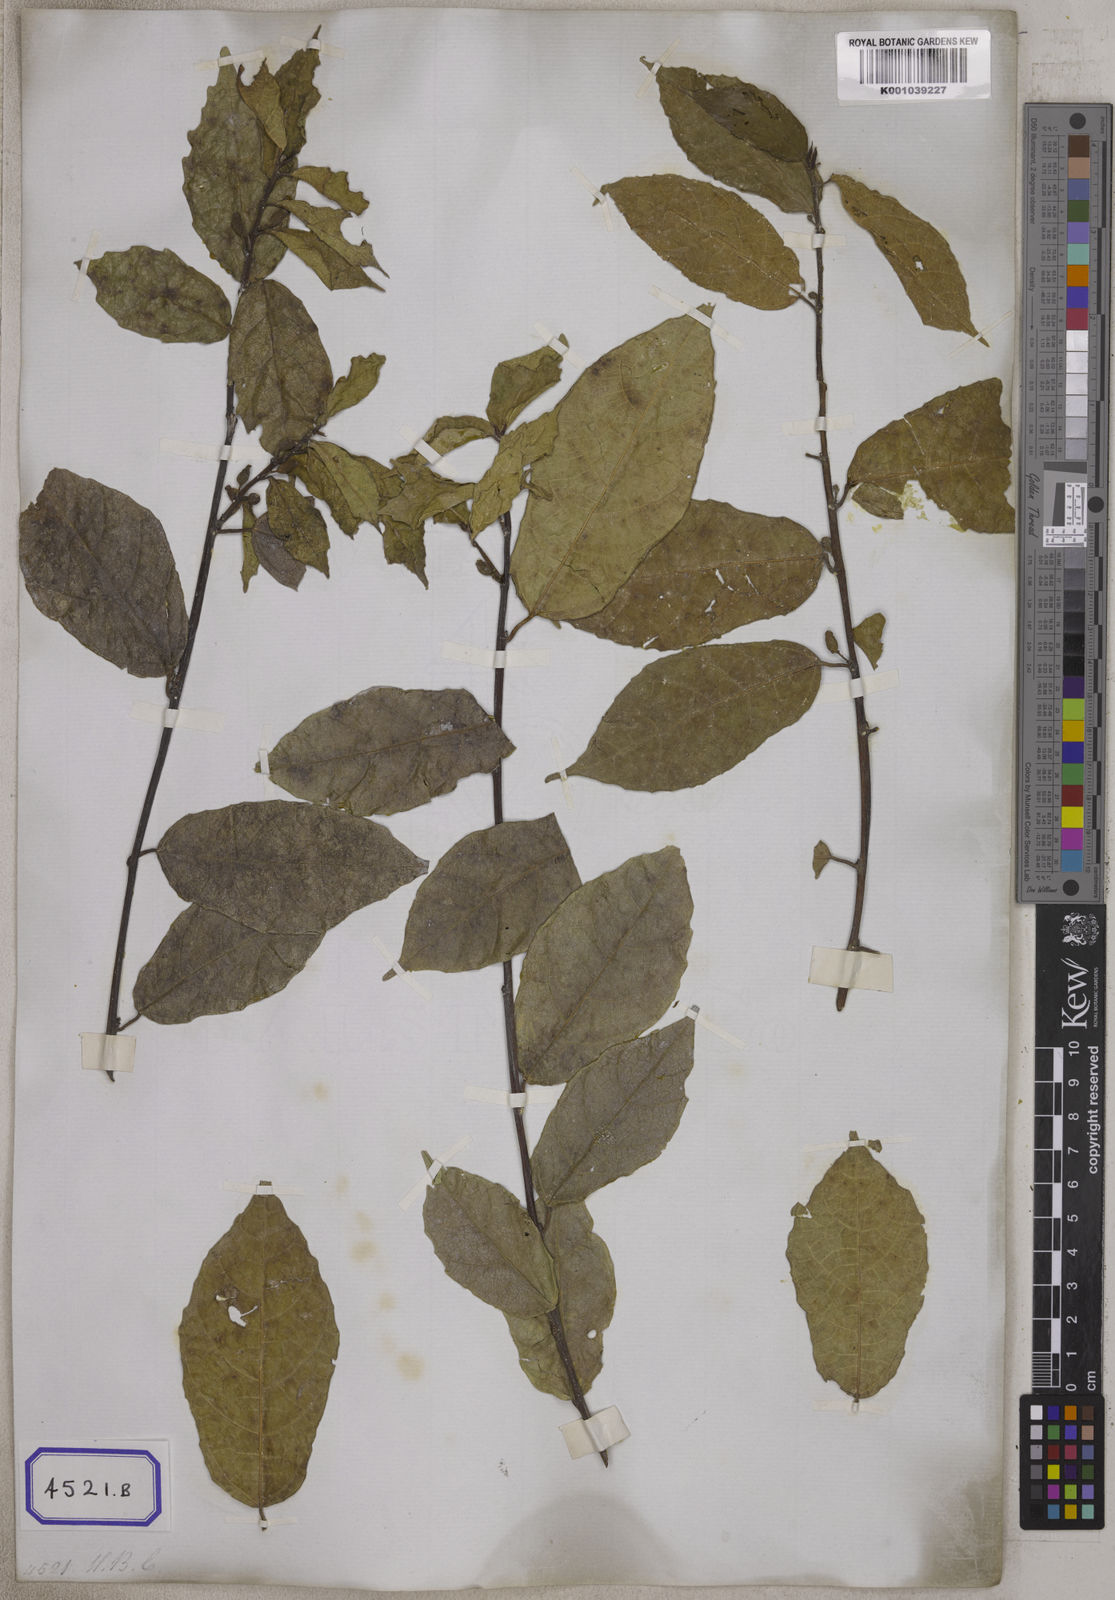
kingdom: Plantae
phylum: Tracheophyta
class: Magnoliopsida
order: Rosales
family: Moraceae
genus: Ficus
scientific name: Ficus ampelos
